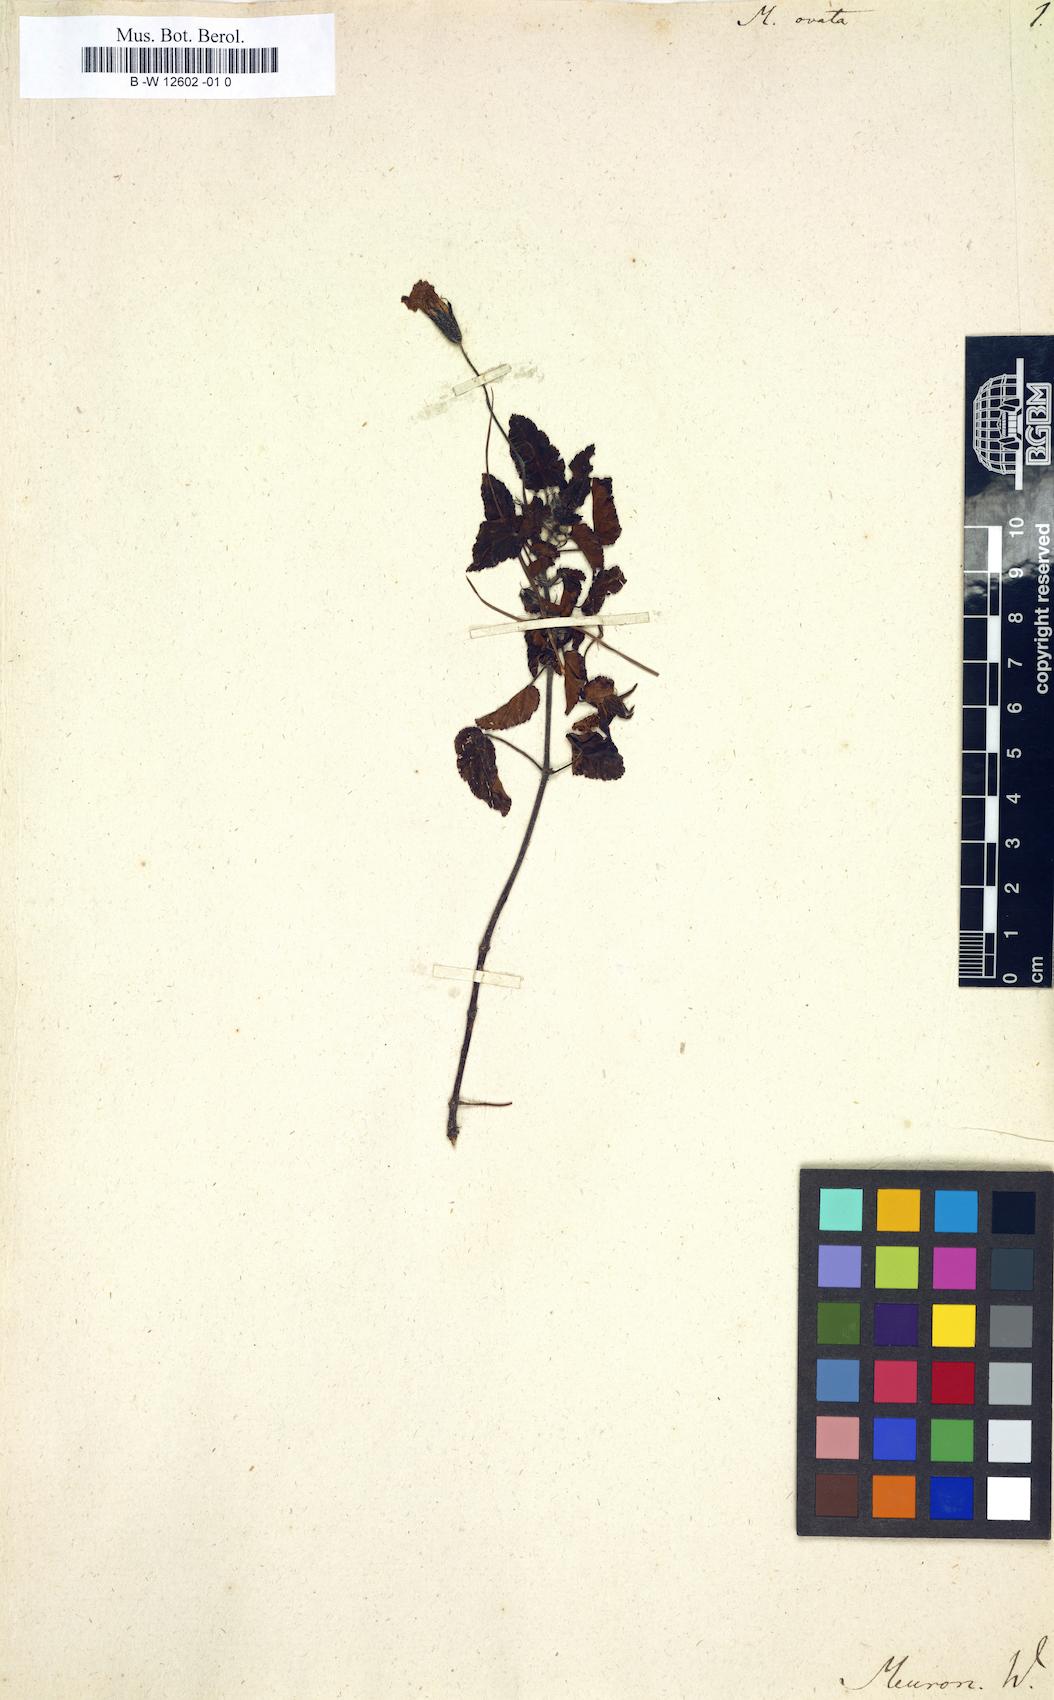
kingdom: Plantae
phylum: Tracheophyta
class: Magnoliopsida
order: Geraniales
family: Geraniaceae
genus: Monsonia
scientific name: Monsonia emarginata
